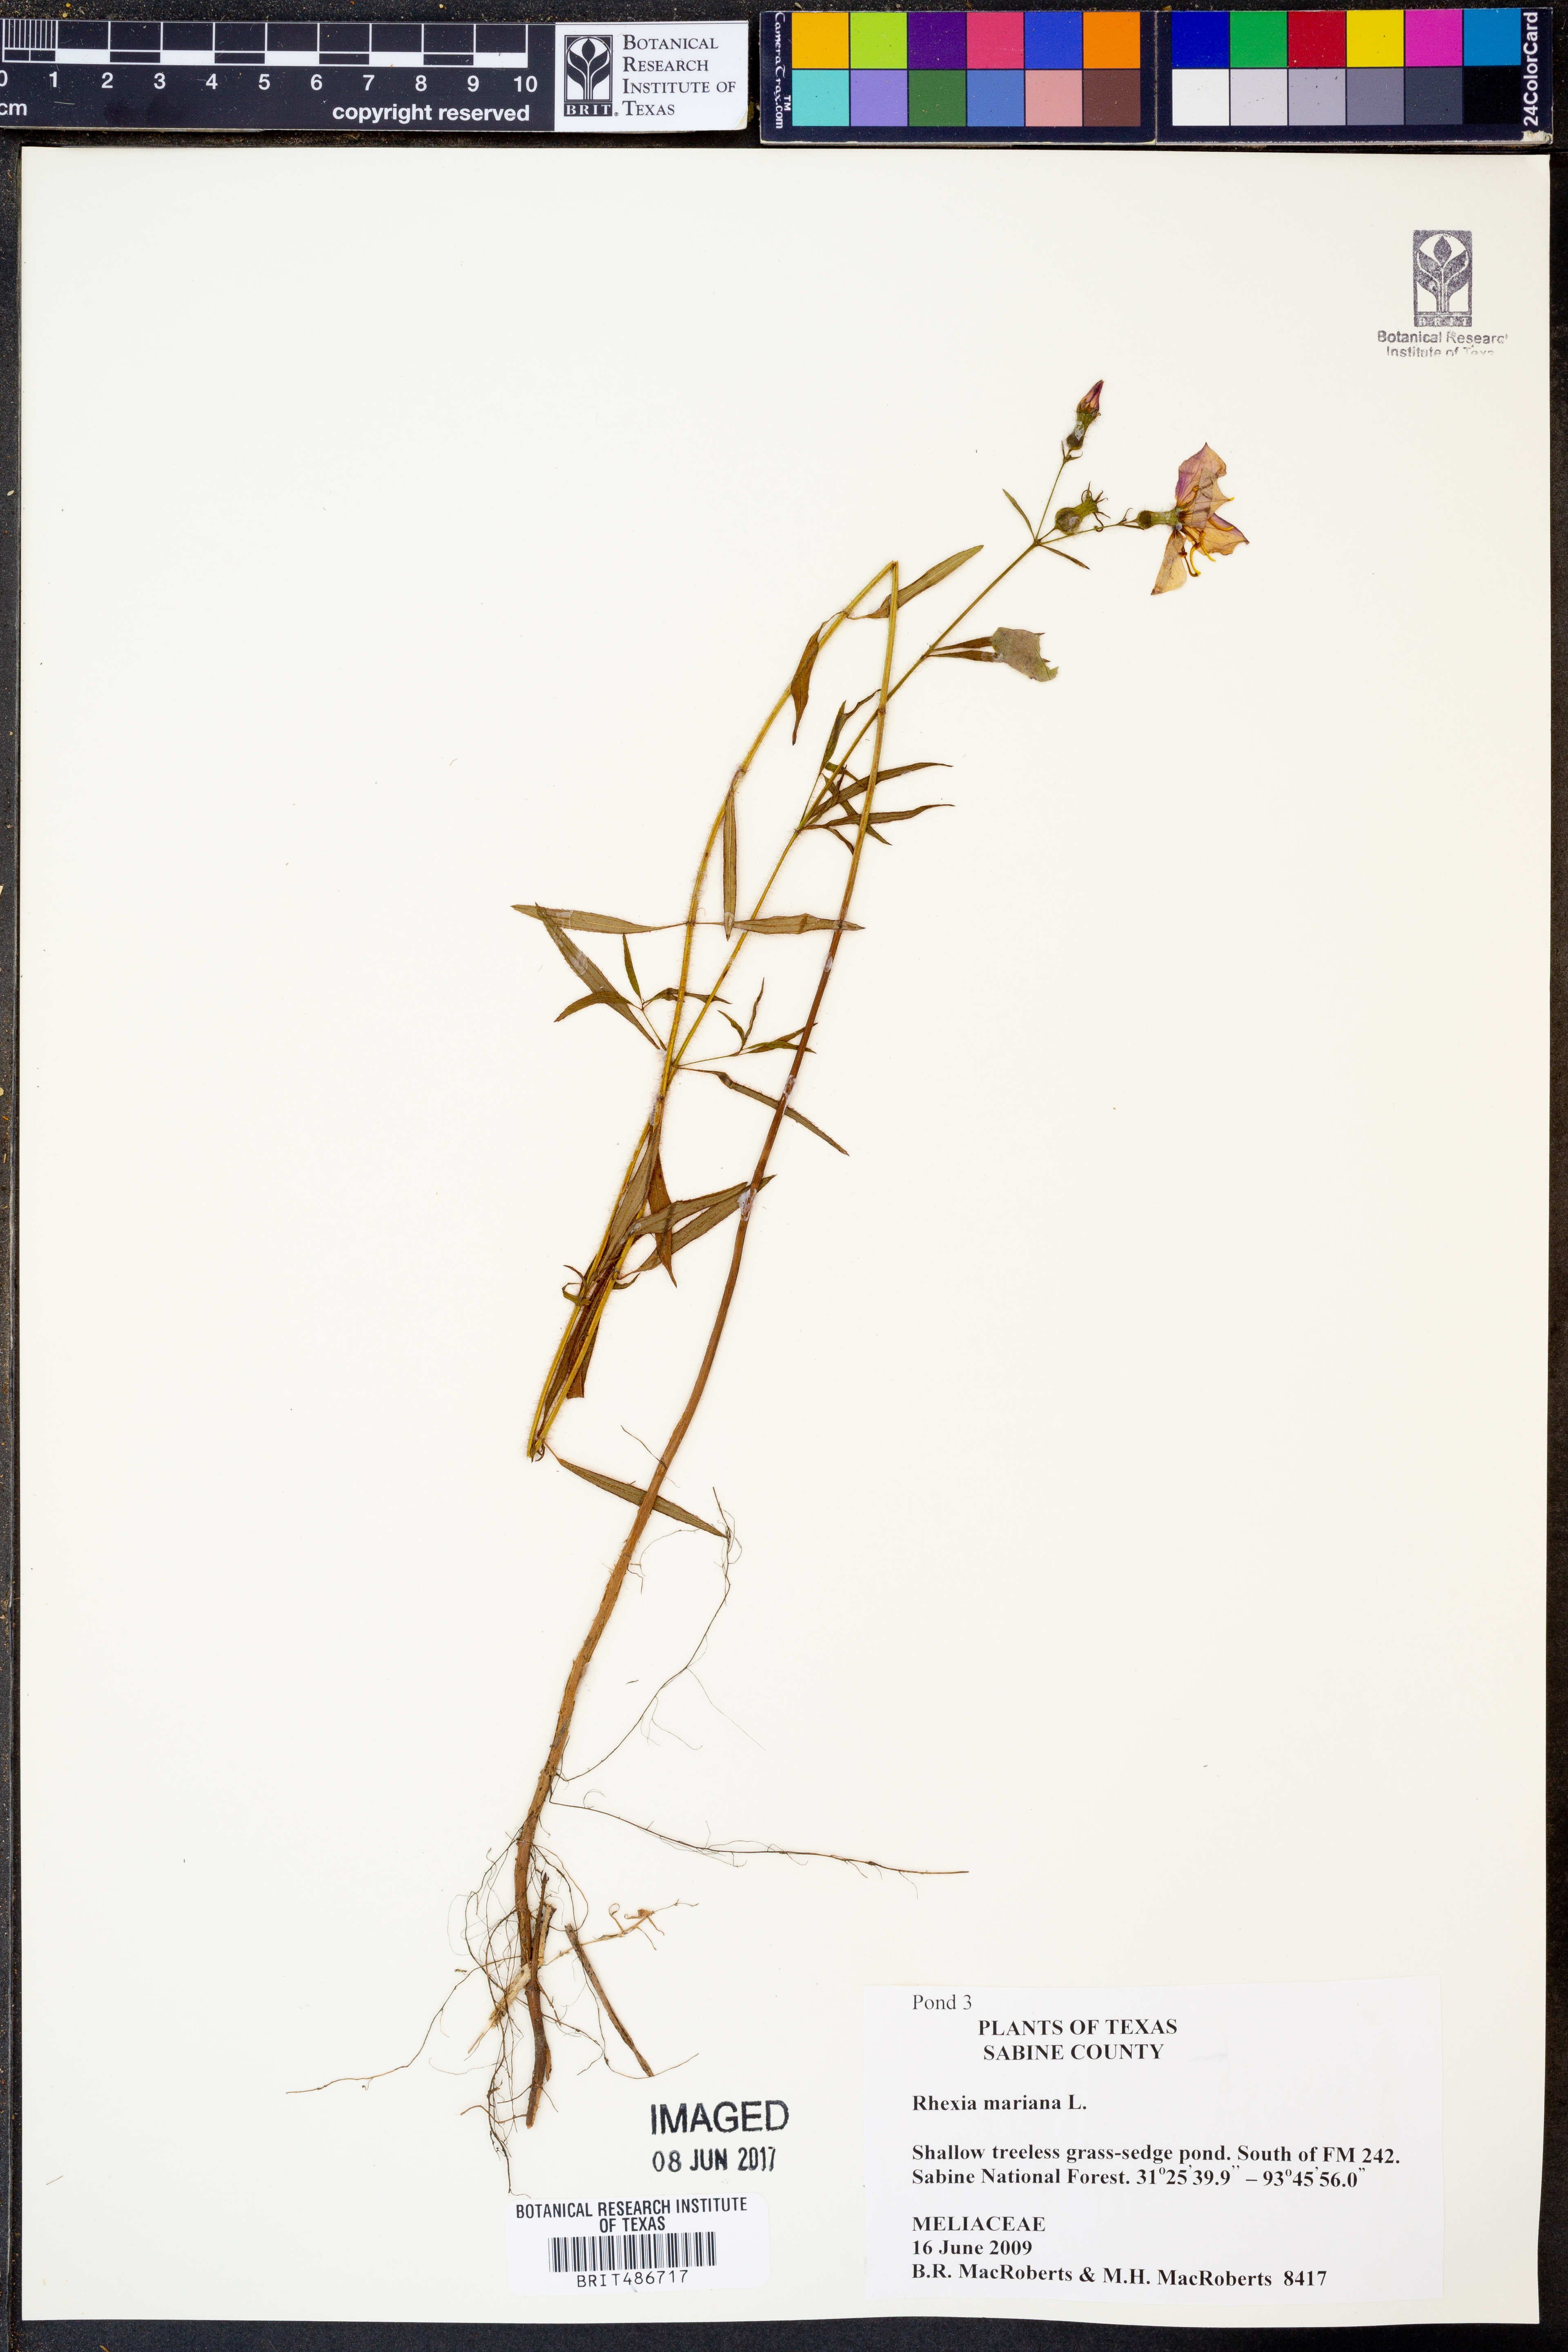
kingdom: Plantae
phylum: Tracheophyta
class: Magnoliopsida
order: Myrtales
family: Melastomataceae
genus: Rhexia
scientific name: Rhexia mariana
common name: Dull meadow-pitcher
